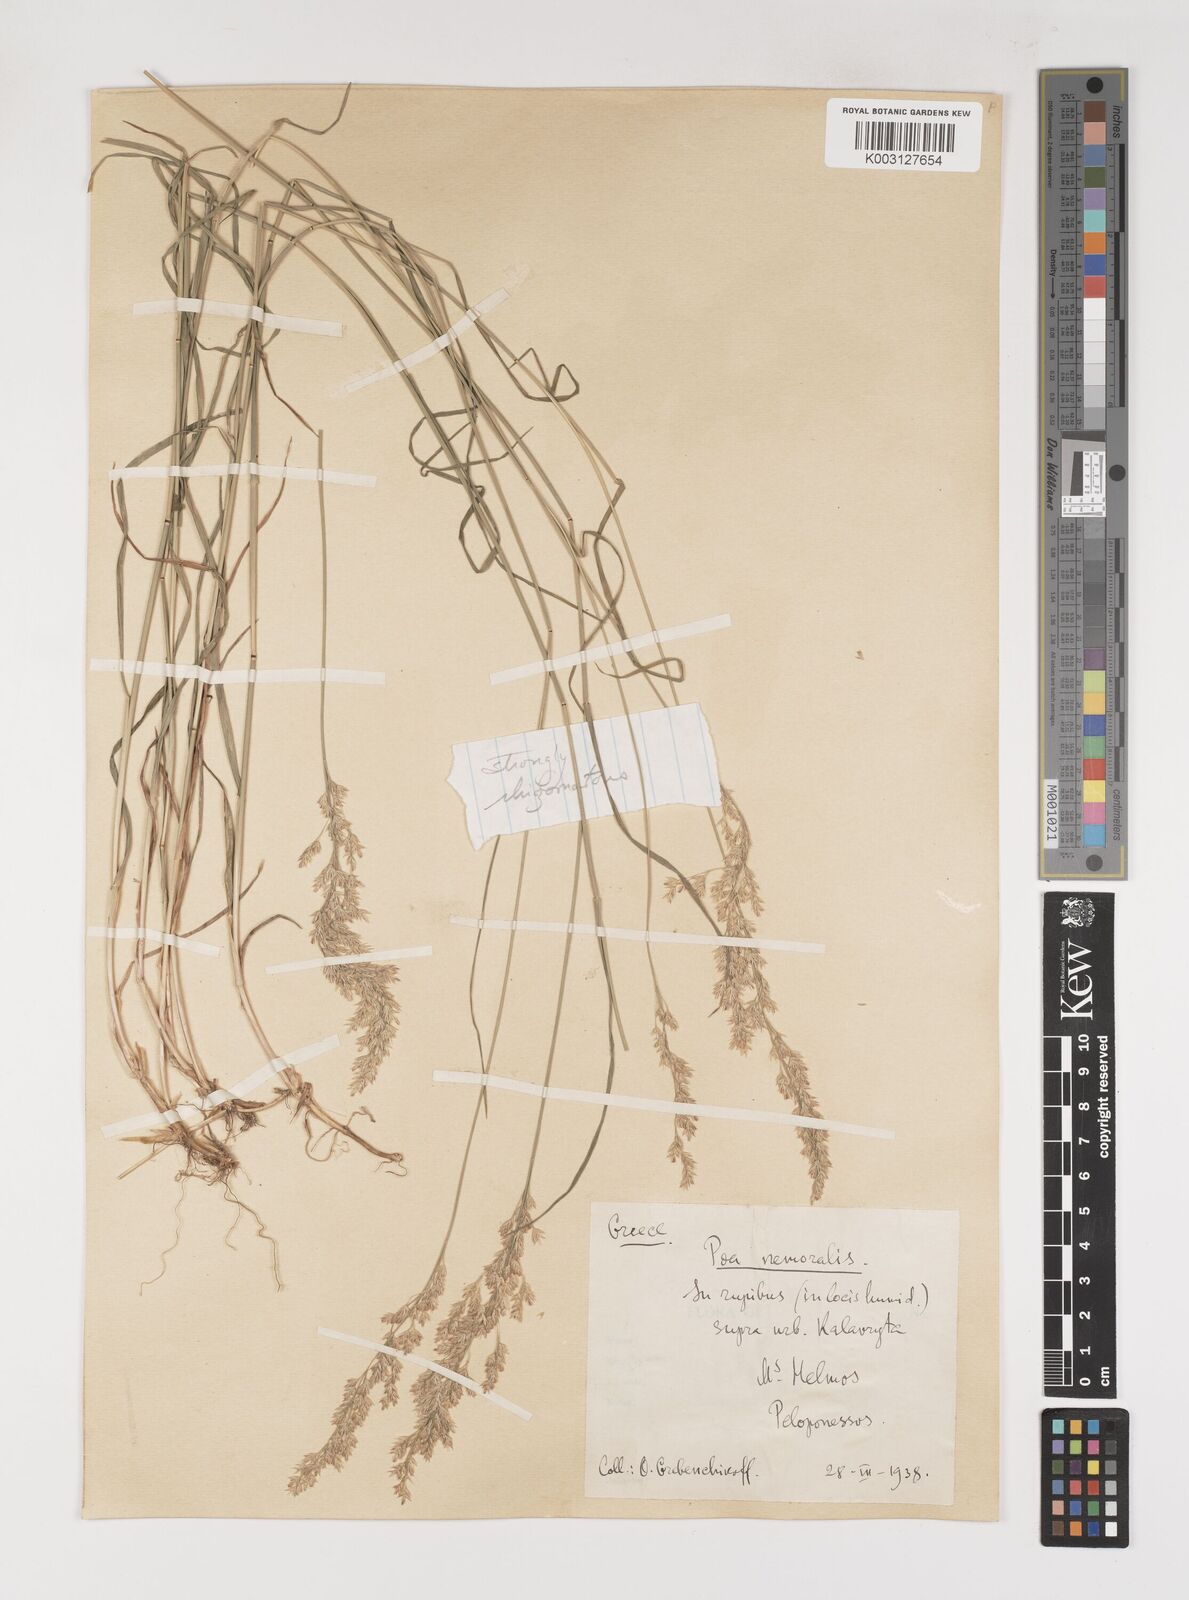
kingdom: Plantae
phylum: Tracheophyta
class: Liliopsida
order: Poales
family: Poaceae
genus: Poa
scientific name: Poa
